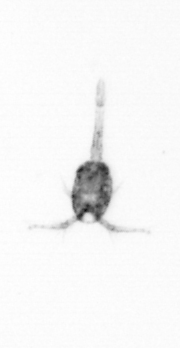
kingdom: Animalia
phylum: Arthropoda
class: Copepoda
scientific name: Copepoda
